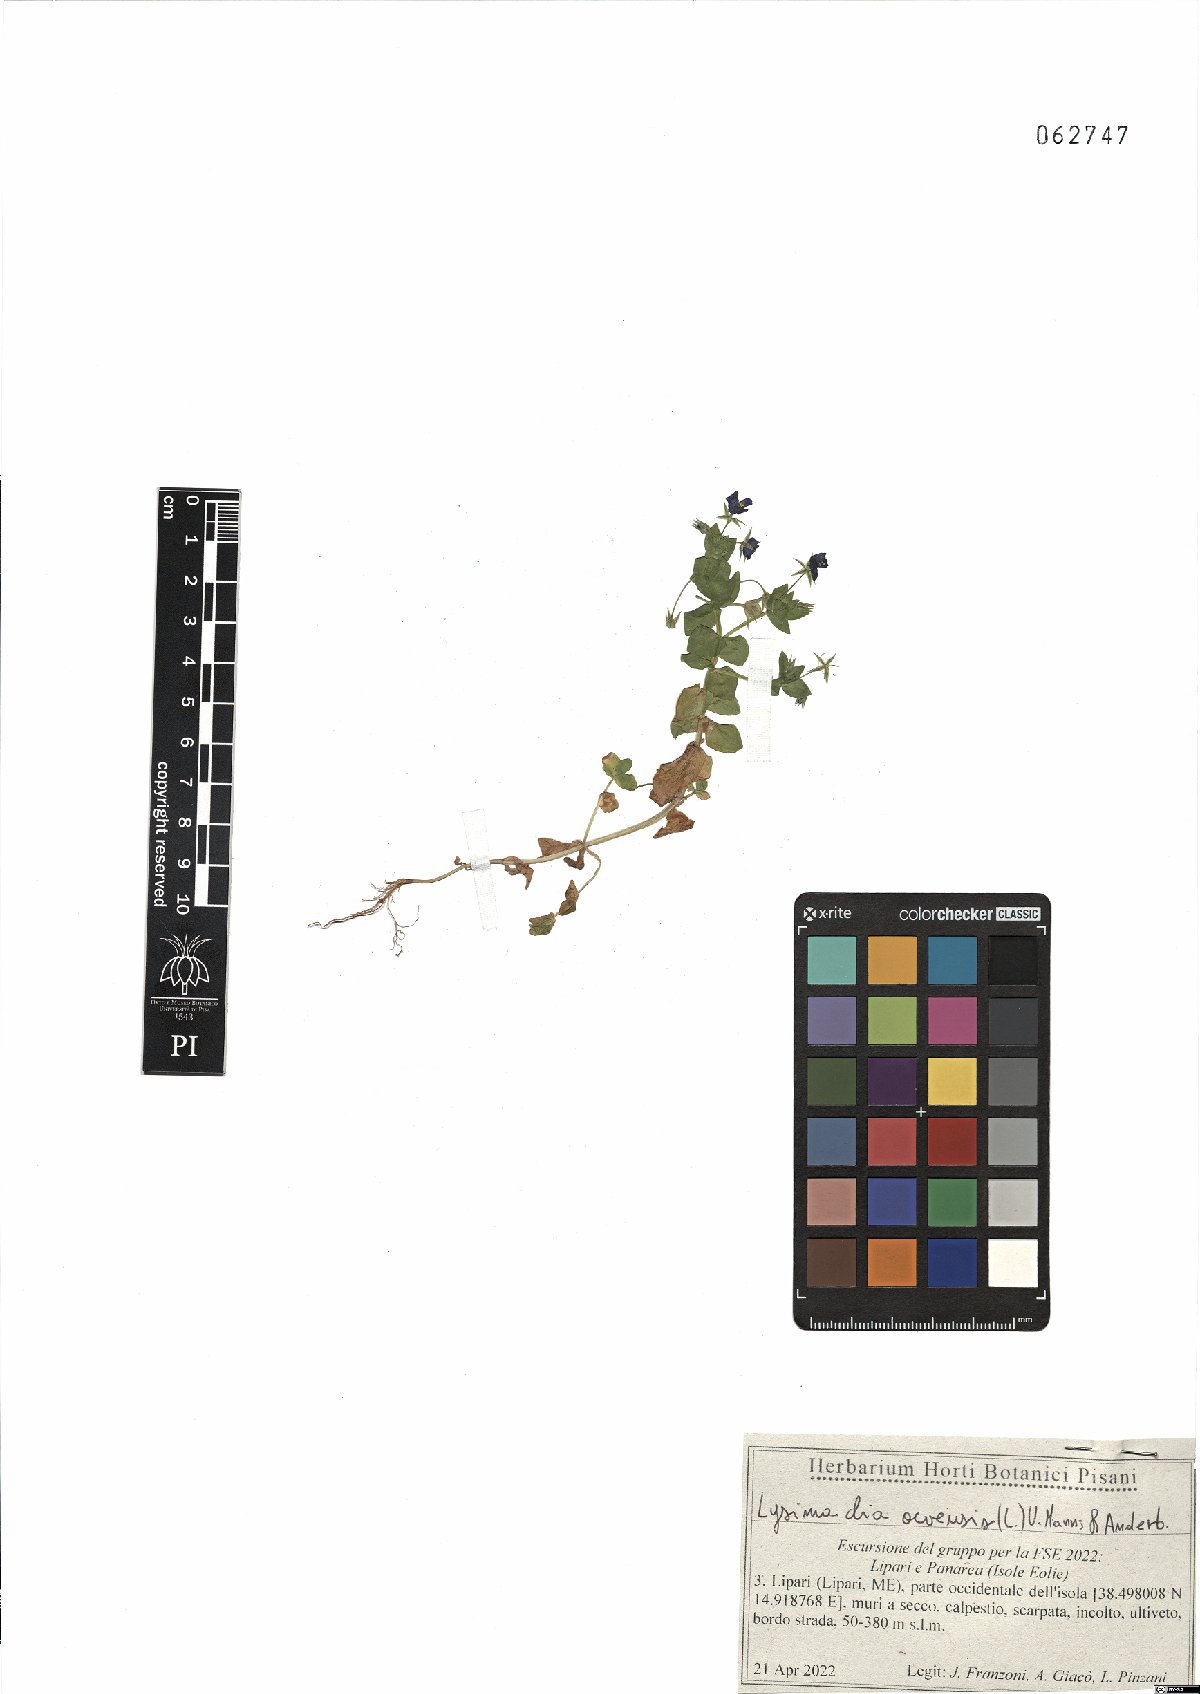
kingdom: Plantae
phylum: Tracheophyta
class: Magnoliopsida
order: Ericales
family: Primulaceae
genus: Lysimachia
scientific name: Lysimachia arvensis
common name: Scarlet pimpernel
